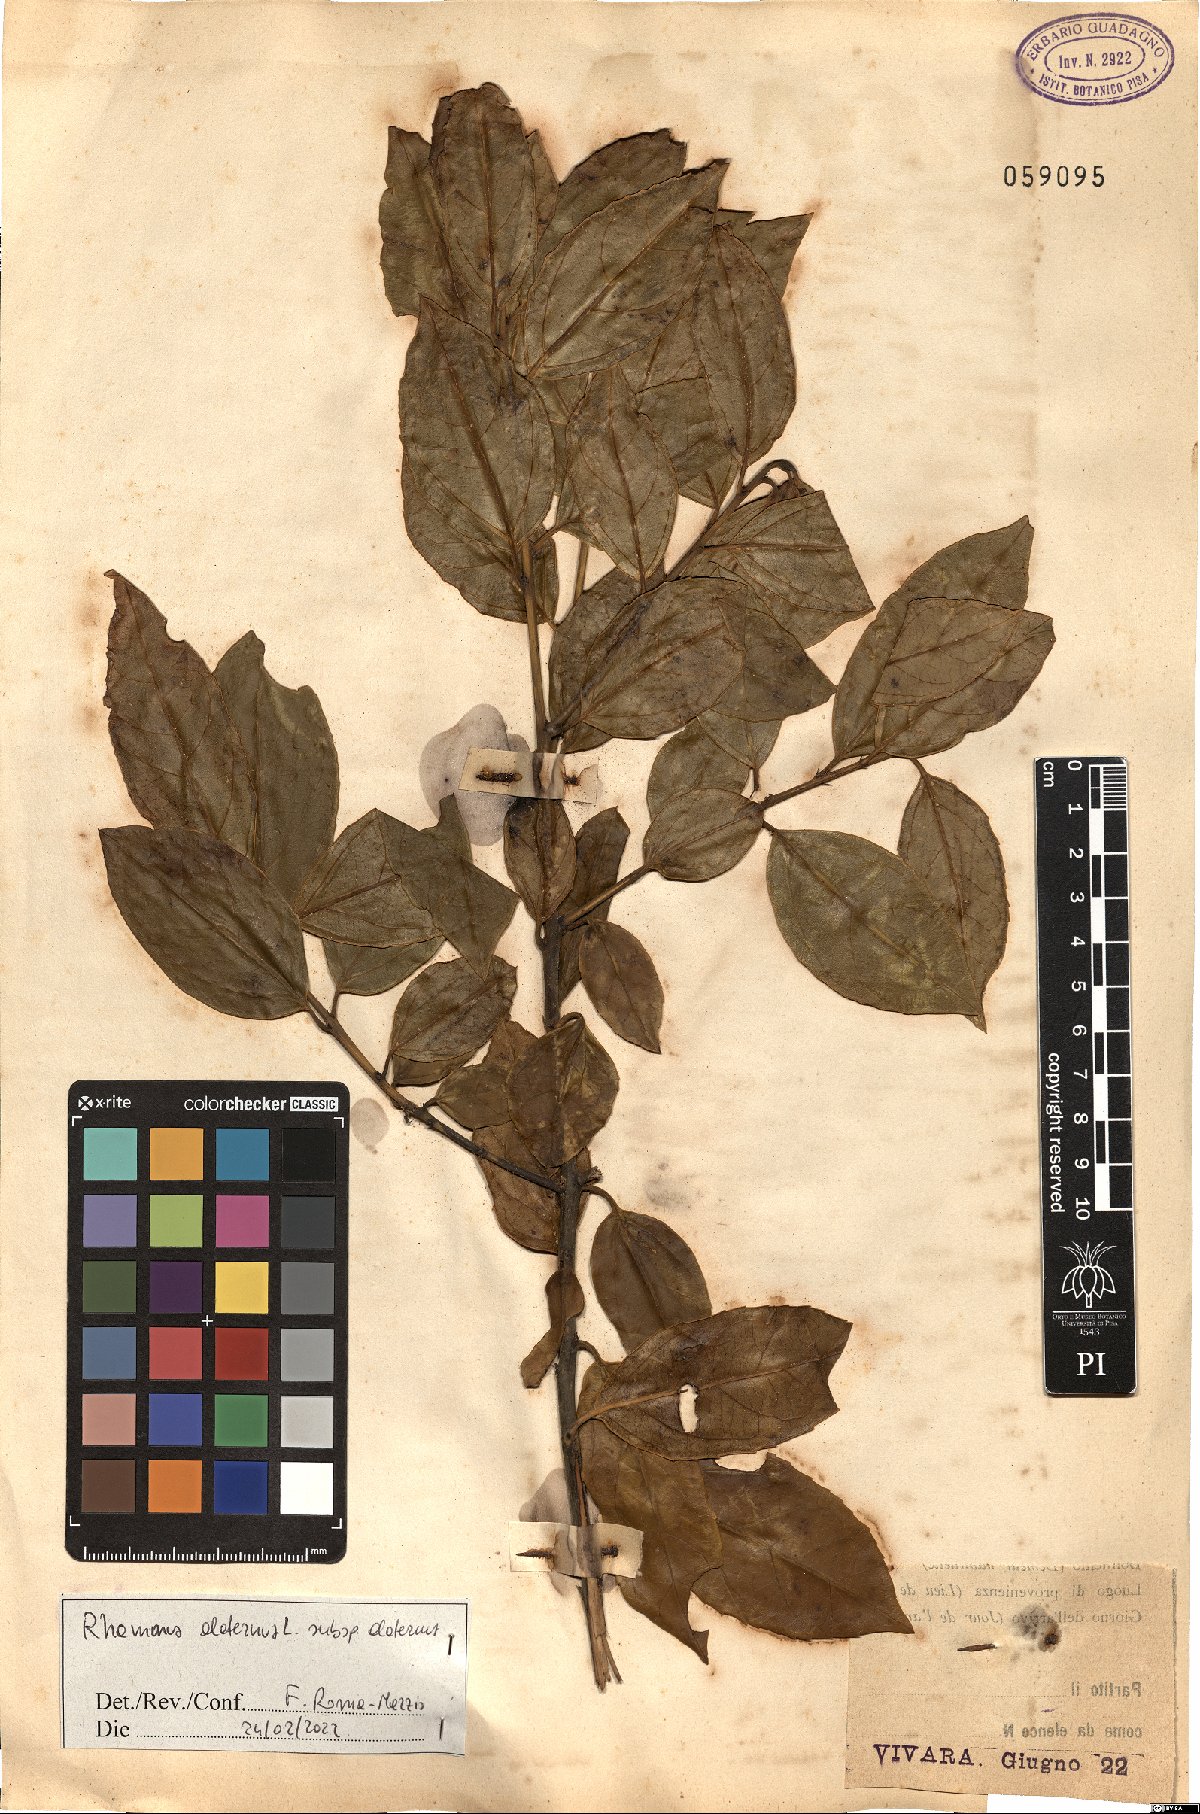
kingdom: Plantae
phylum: Tracheophyta
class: Magnoliopsida
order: Rosales
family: Rhamnaceae
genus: Rhamnus
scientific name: Rhamnus alaternus
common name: Mediterranean buckthorn
